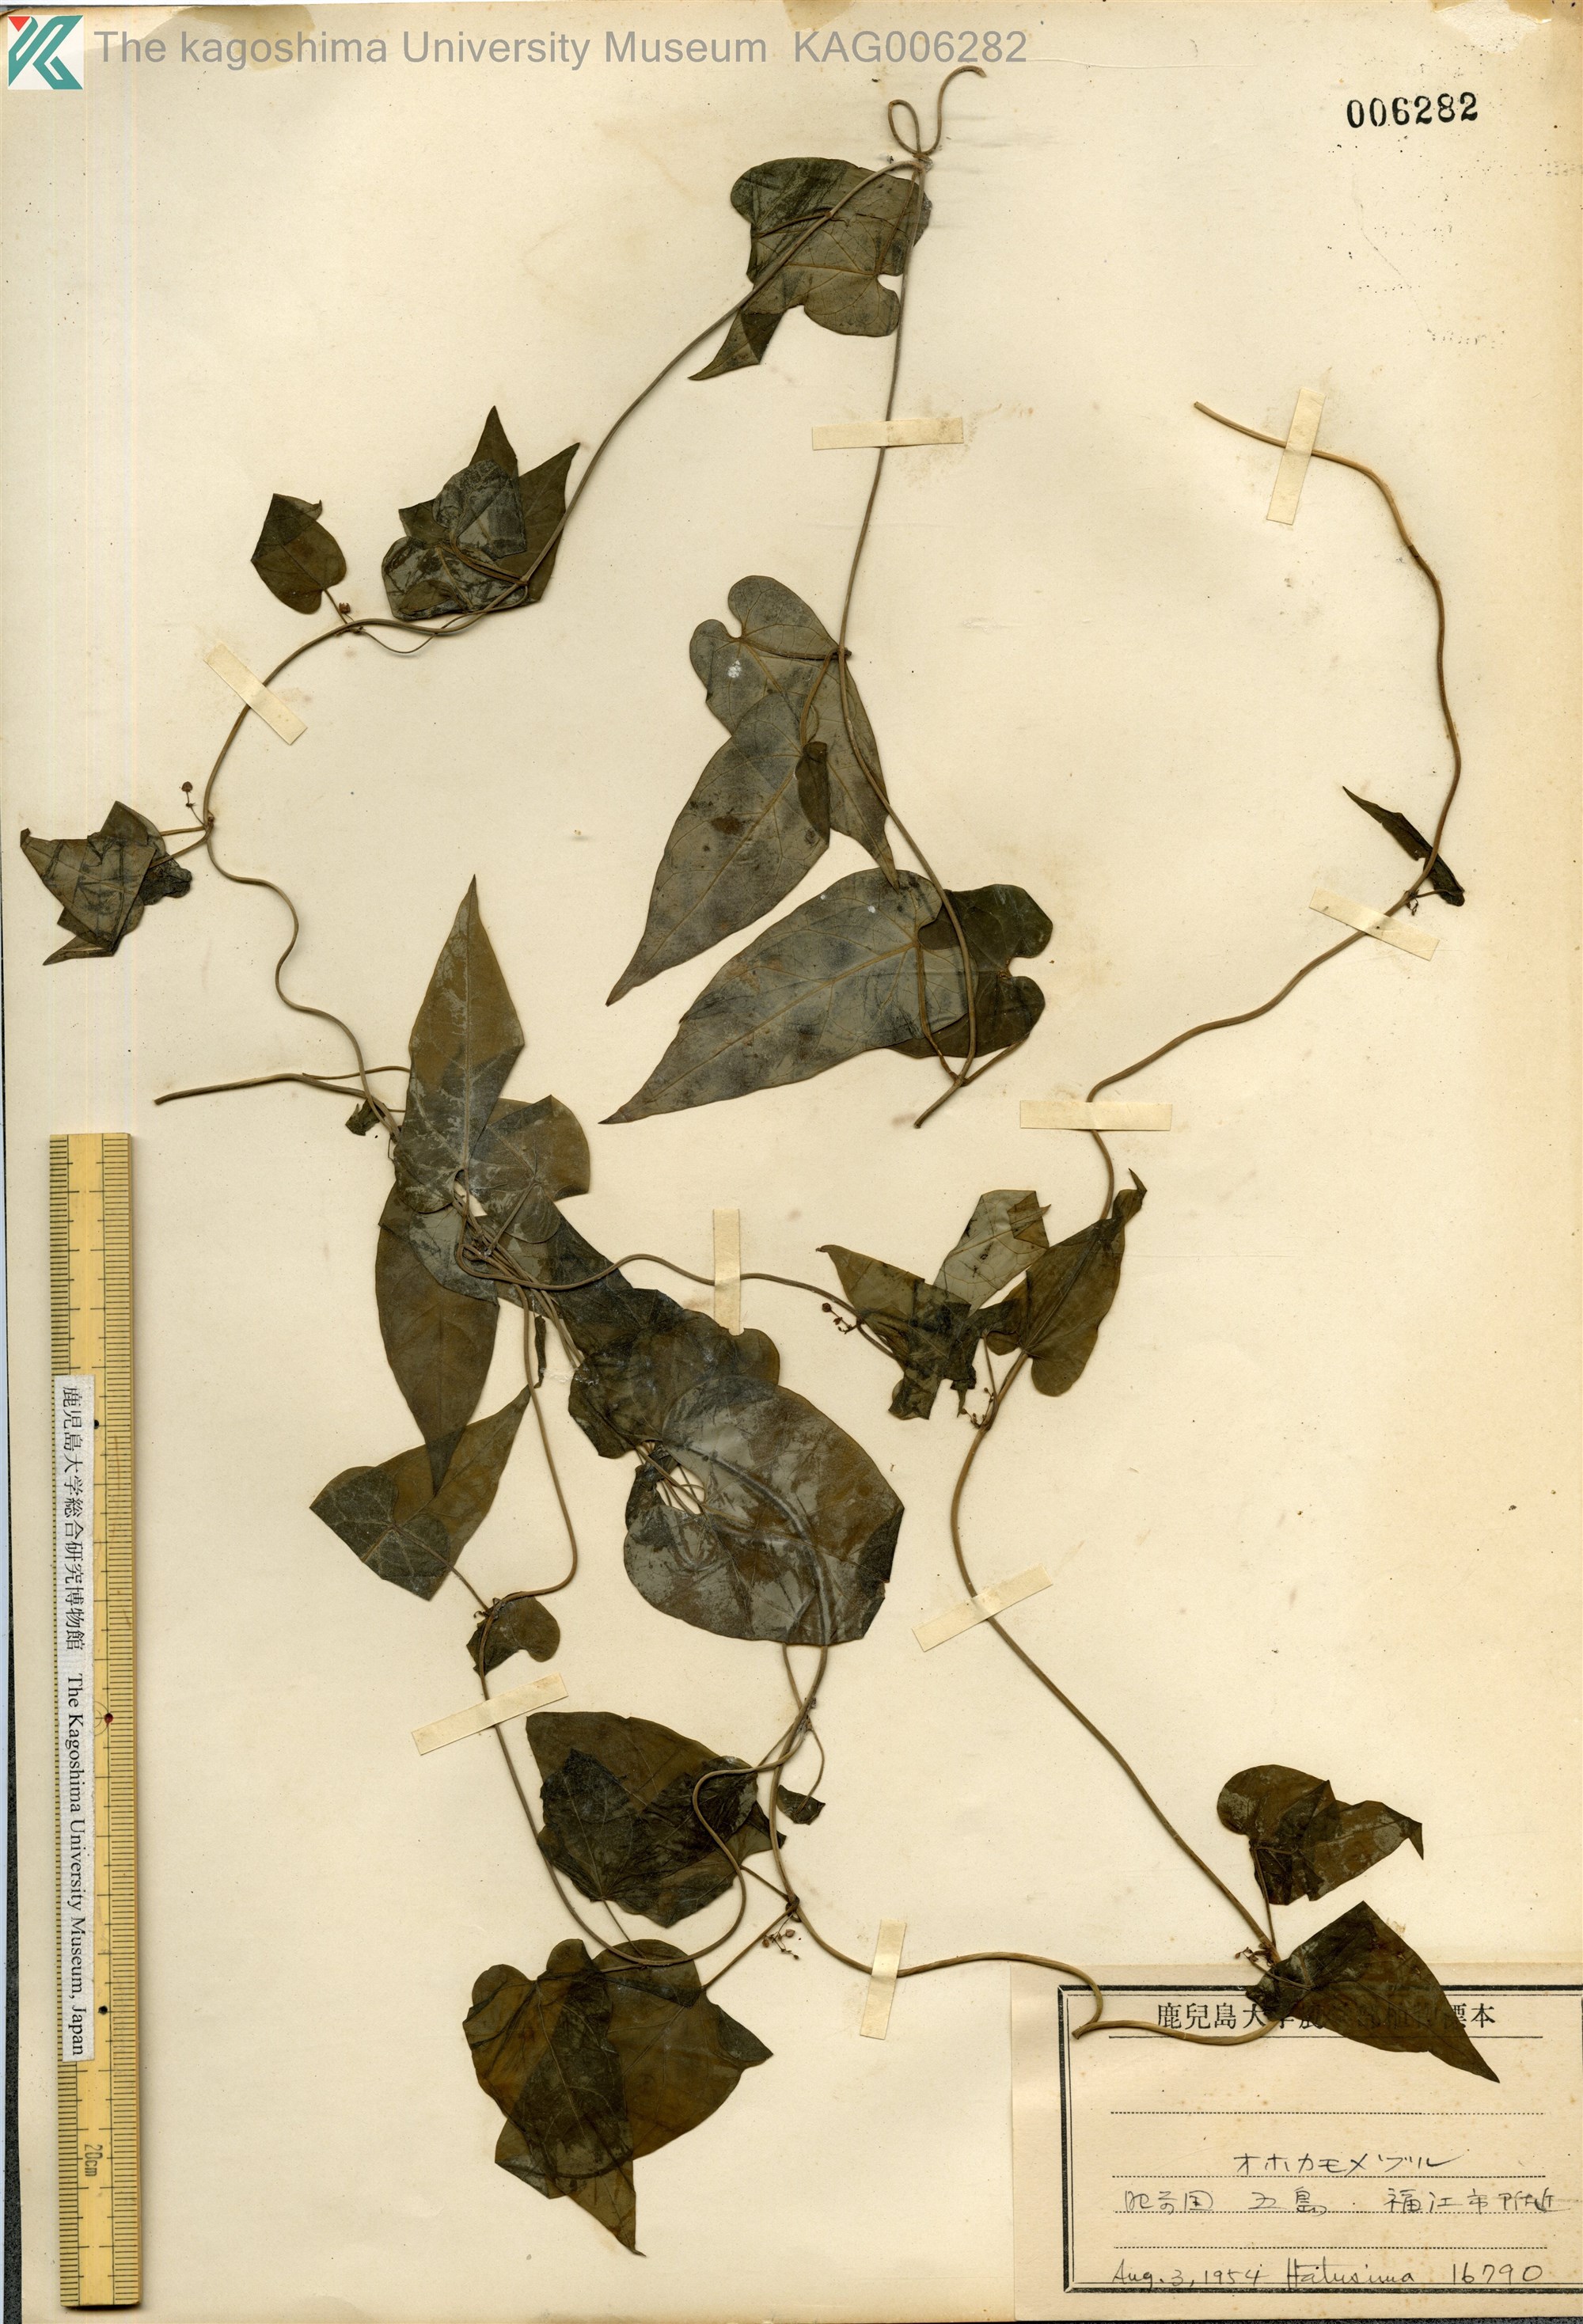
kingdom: Plantae
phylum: Tracheophyta
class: Magnoliopsida
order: Gentianales
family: Apocynaceae
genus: Vincetoxicum
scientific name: Vincetoxicum aristolochioides
